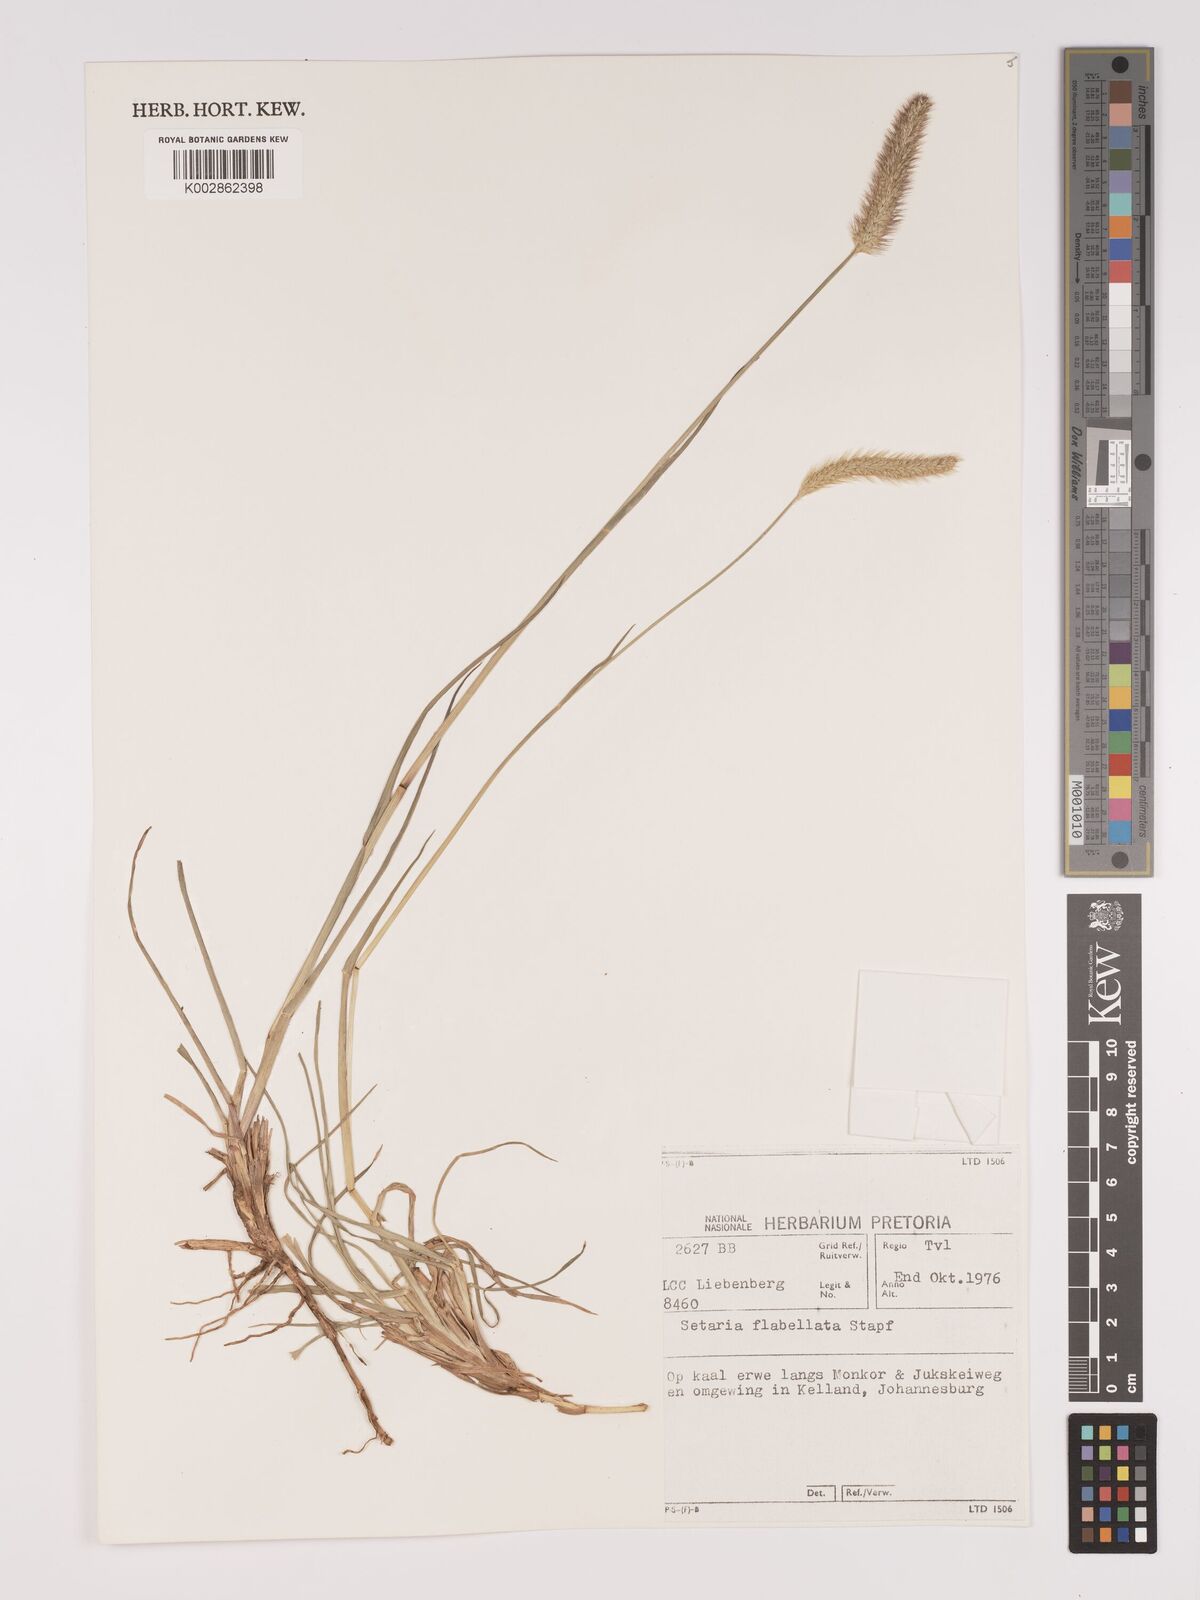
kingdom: Plantae
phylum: Tracheophyta
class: Liliopsida
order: Poales
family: Poaceae
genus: Setaria
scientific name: Setaria sphacelata
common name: African bristlegrass
